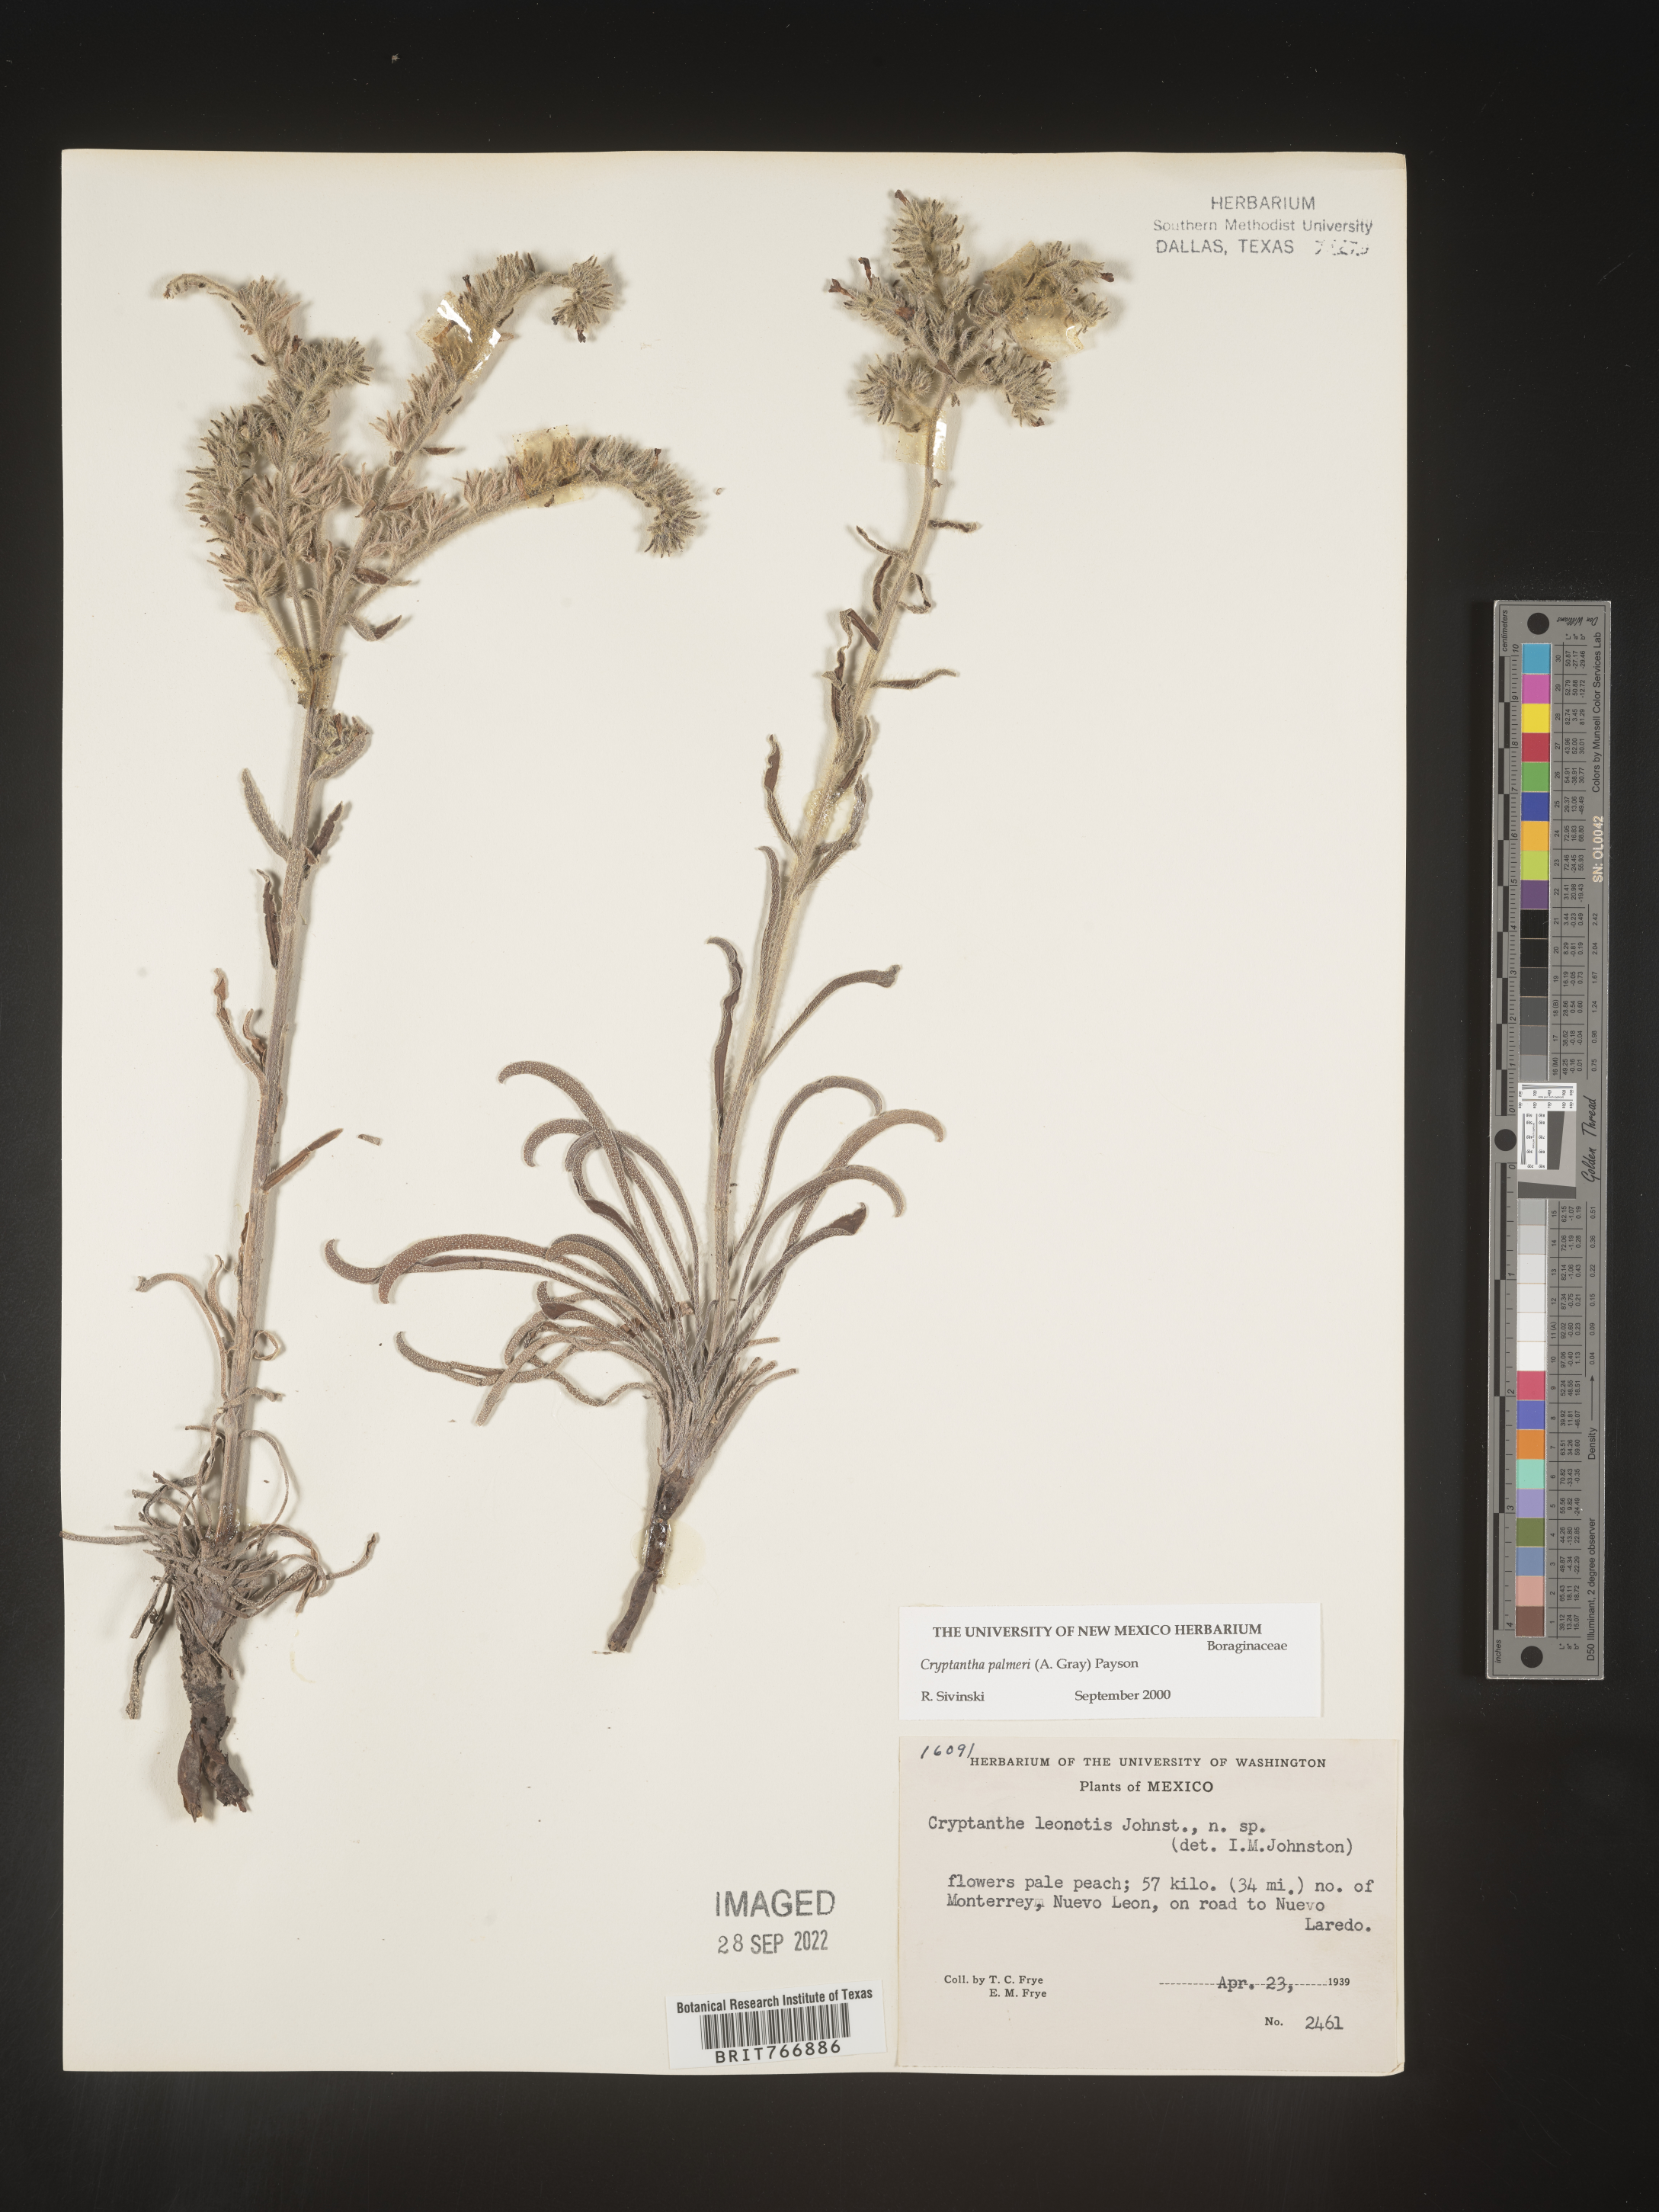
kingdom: Plantae
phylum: Tracheophyta
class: Magnoliopsida
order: Boraginales
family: Boraginaceae
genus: Cryptantha
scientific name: Cryptantha
